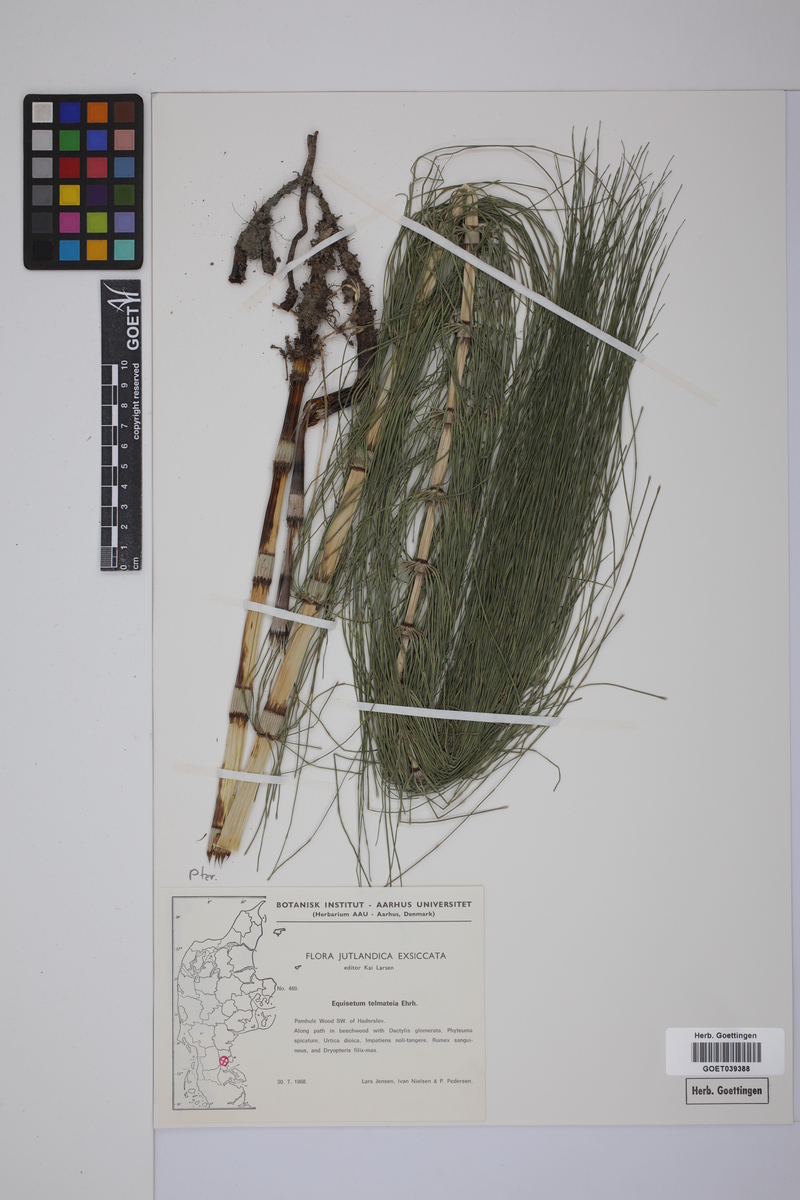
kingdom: Plantae
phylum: Tracheophyta
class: Polypodiopsida
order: Equisetales
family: Equisetaceae
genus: Equisetum
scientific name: Equisetum telmateia
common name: Great horsetail
